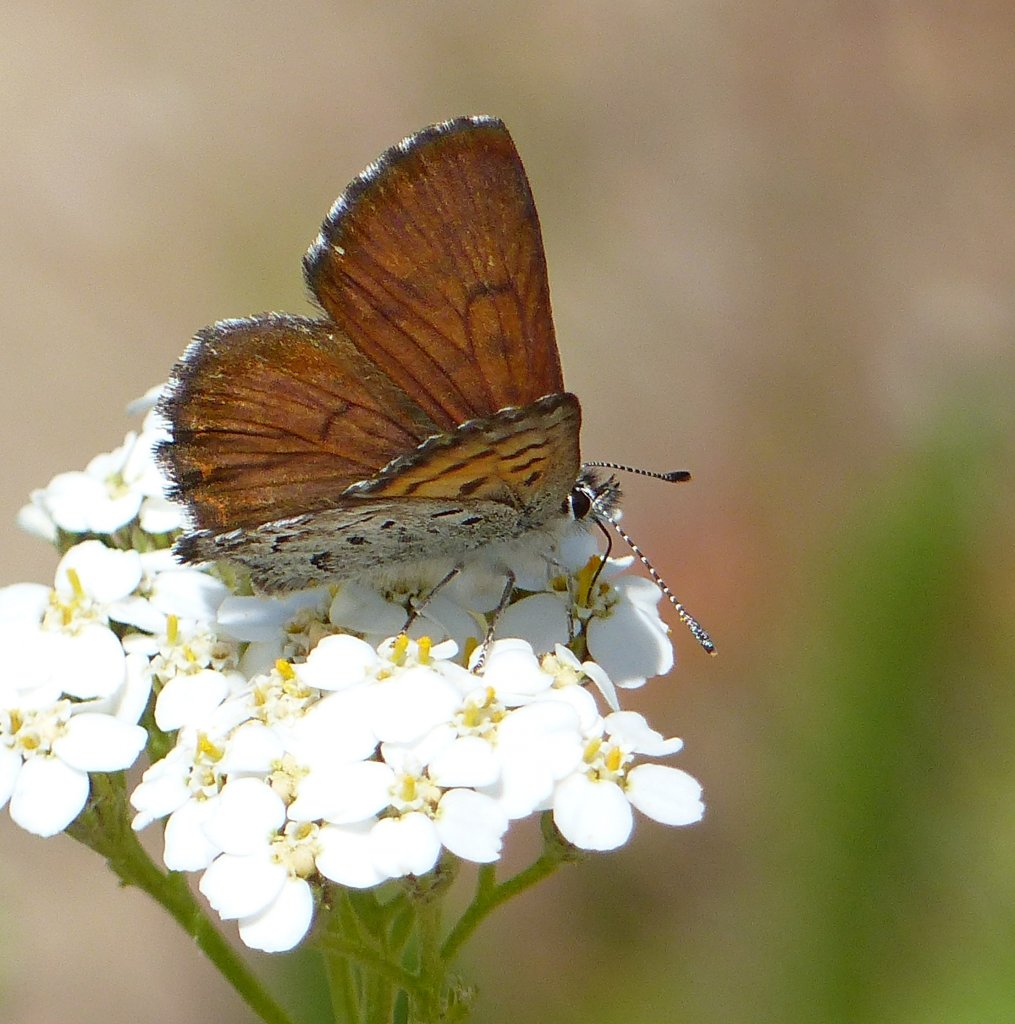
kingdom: Animalia
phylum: Arthropoda
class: Insecta
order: Lepidoptera
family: Lycaenidae
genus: Lycaena
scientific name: Lycaena mariposa
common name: Mariposa Copper
